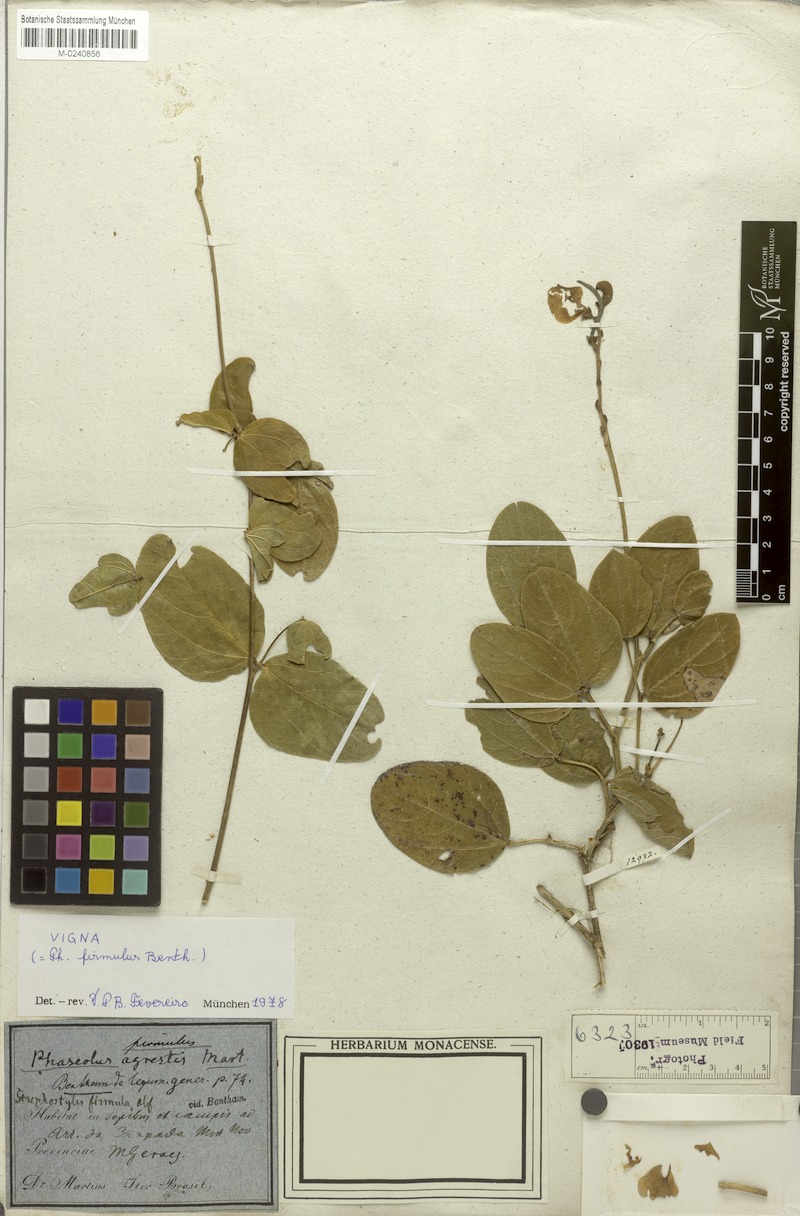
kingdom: Plantae
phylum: Tracheophyta
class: Magnoliopsida
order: Fabales
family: Fabaceae
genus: Ancistrotropis
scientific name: Ancistrotropis firmula
